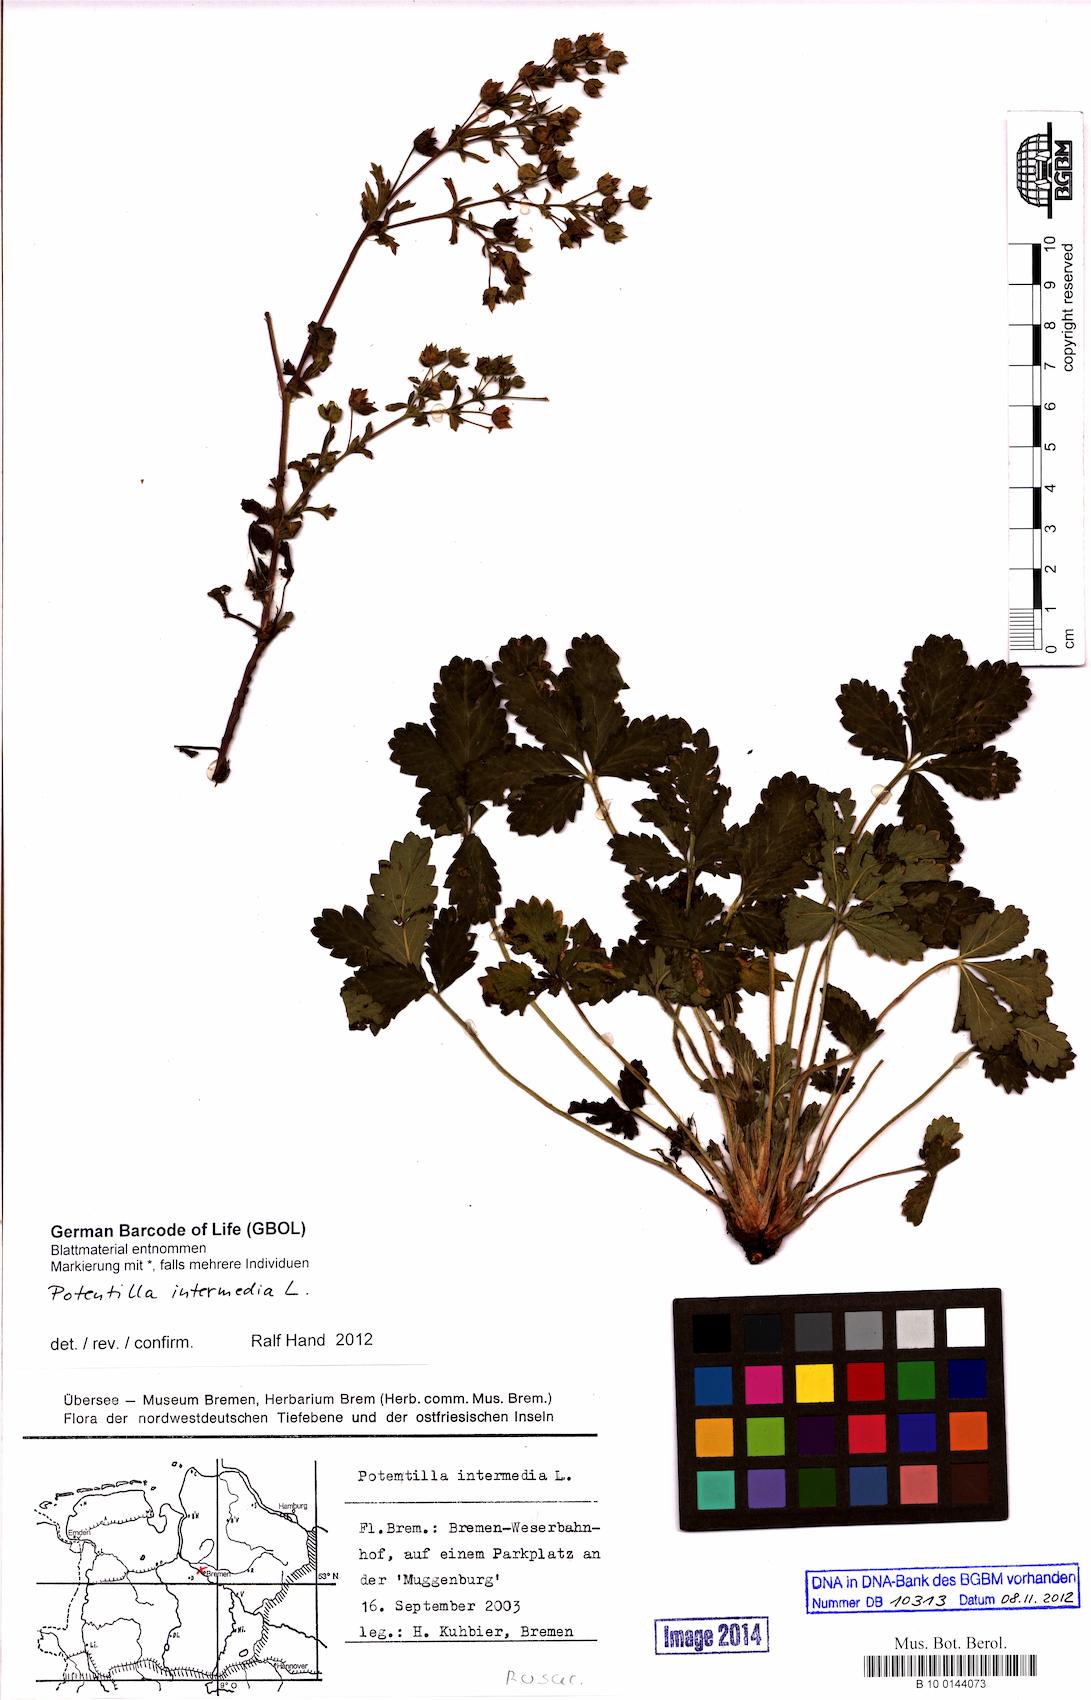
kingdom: Plantae
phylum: Tracheophyta
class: Magnoliopsida
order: Rosales
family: Rosaceae
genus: Potentilla
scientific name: Potentilla intermedia
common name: Downy cinquefoil
